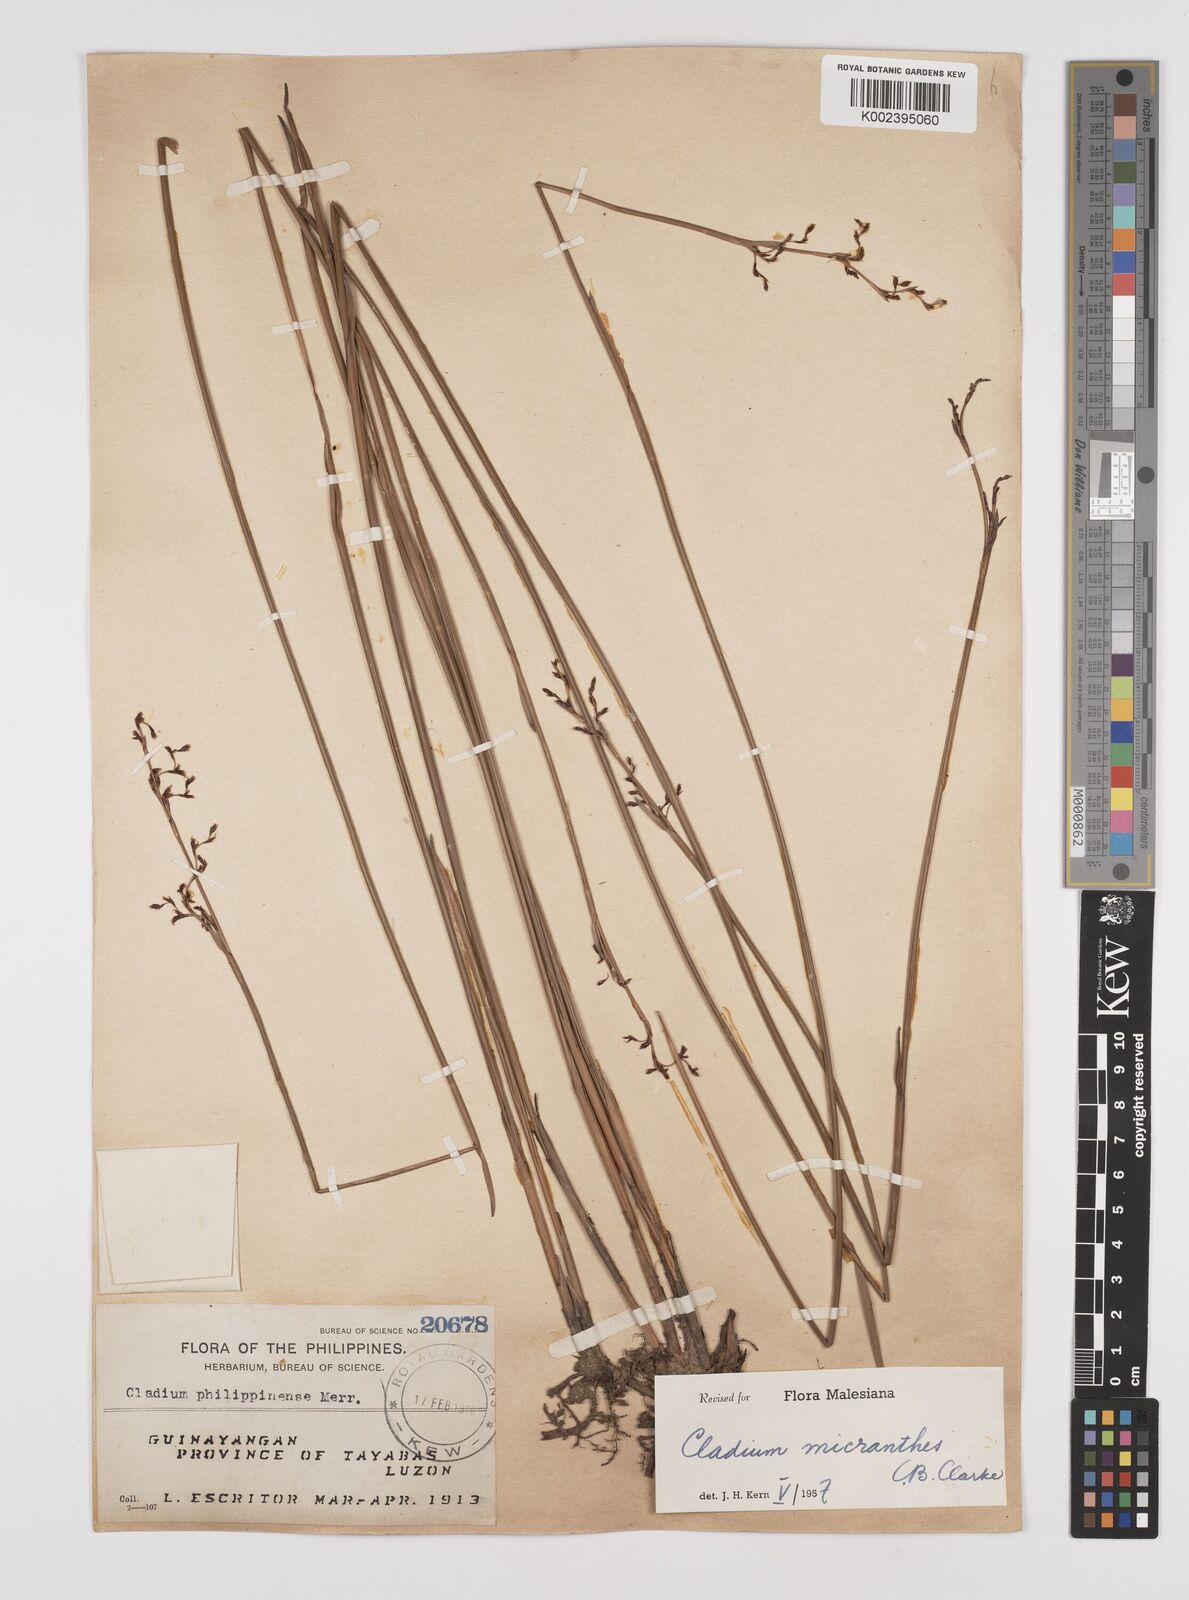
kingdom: Plantae
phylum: Tracheophyta
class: Liliopsida
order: Poales
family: Cyperaceae
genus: Machaerina
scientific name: Machaerina disticha
